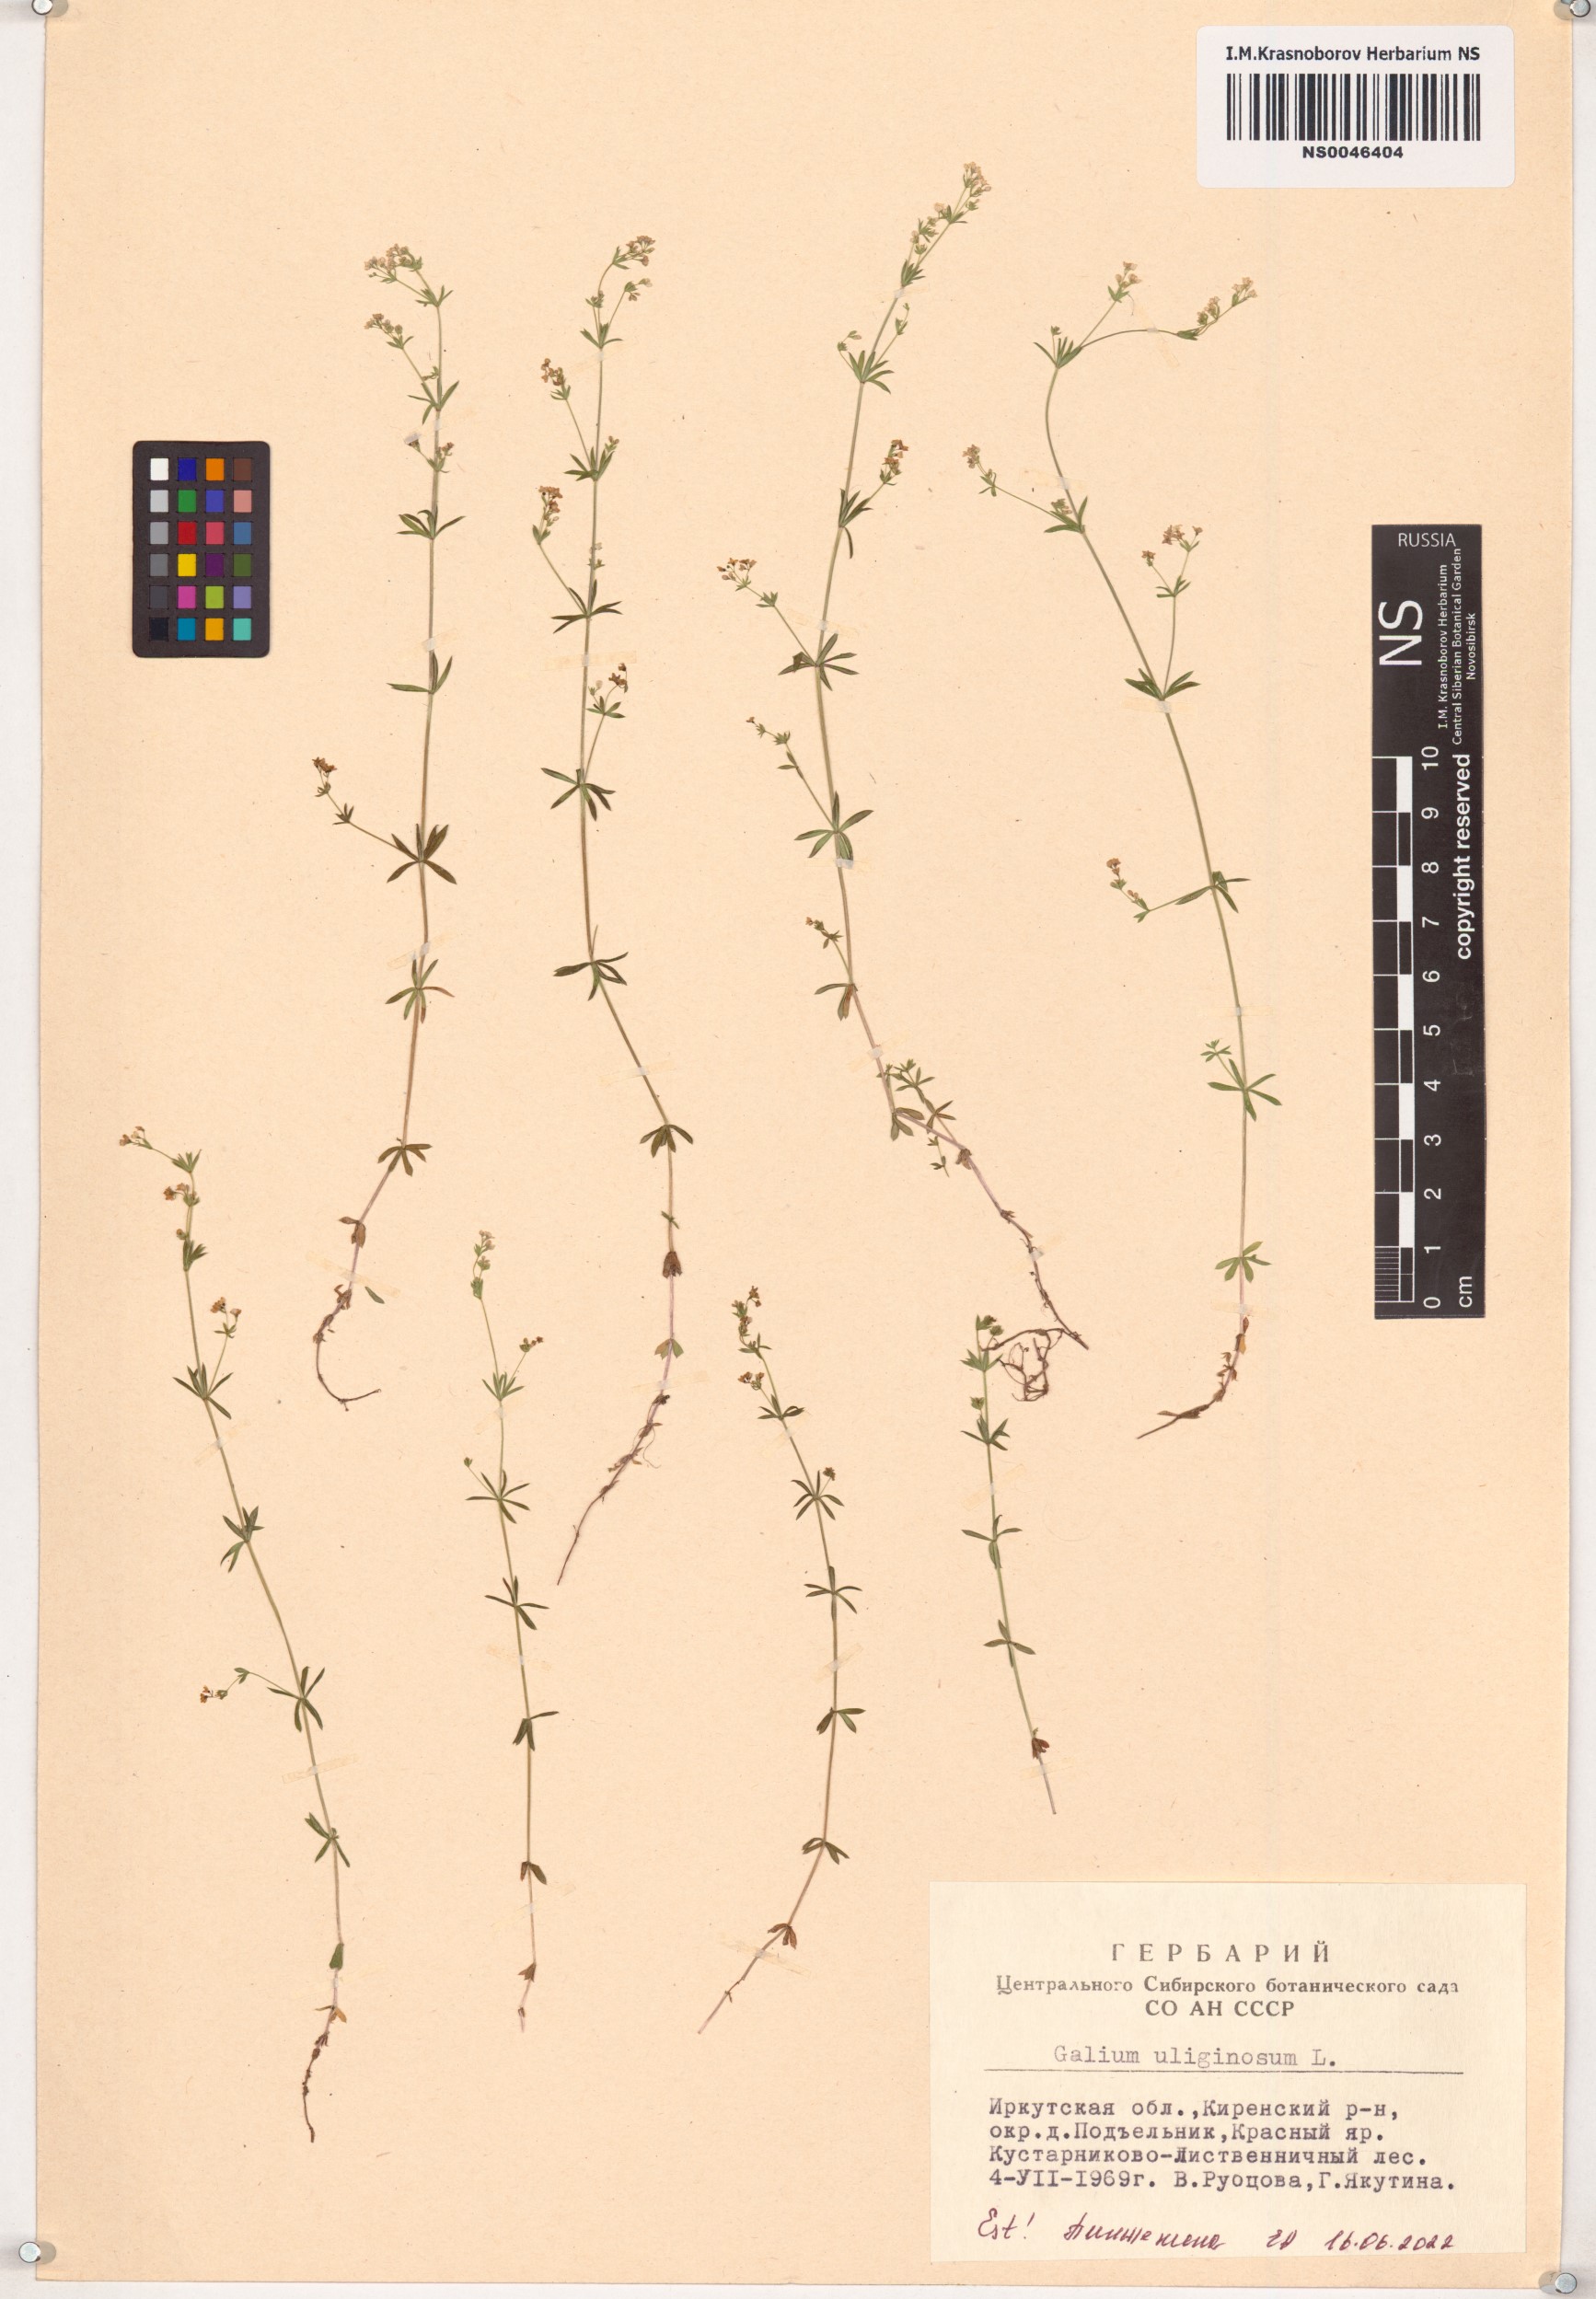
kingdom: Plantae
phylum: Tracheophyta
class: Magnoliopsida
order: Gentianales
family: Rubiaceae
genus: Galium
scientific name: Galium uliginosum
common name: Fen bedstraw
